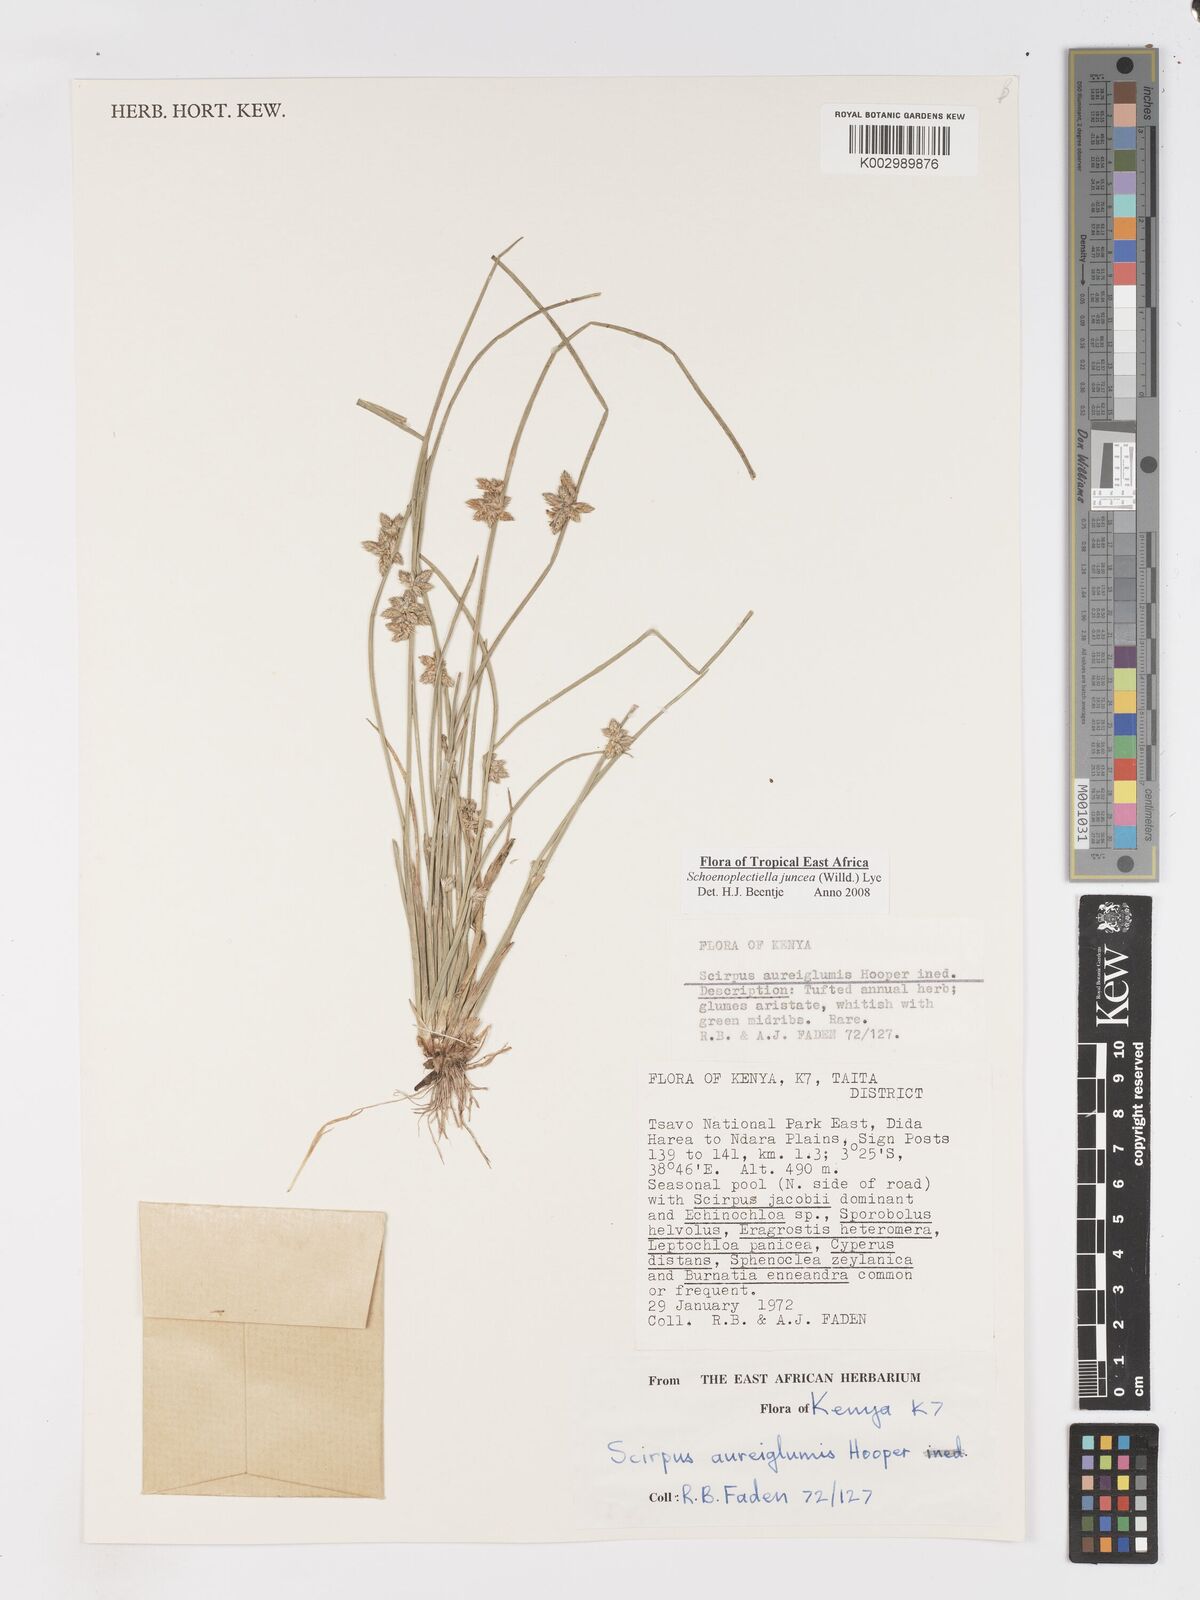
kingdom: Plantae
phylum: Tracheophyta
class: Liliopsida
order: Poales
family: Cyperaceae
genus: Schoenoplectiella
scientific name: Schoenoplectiella juncea
